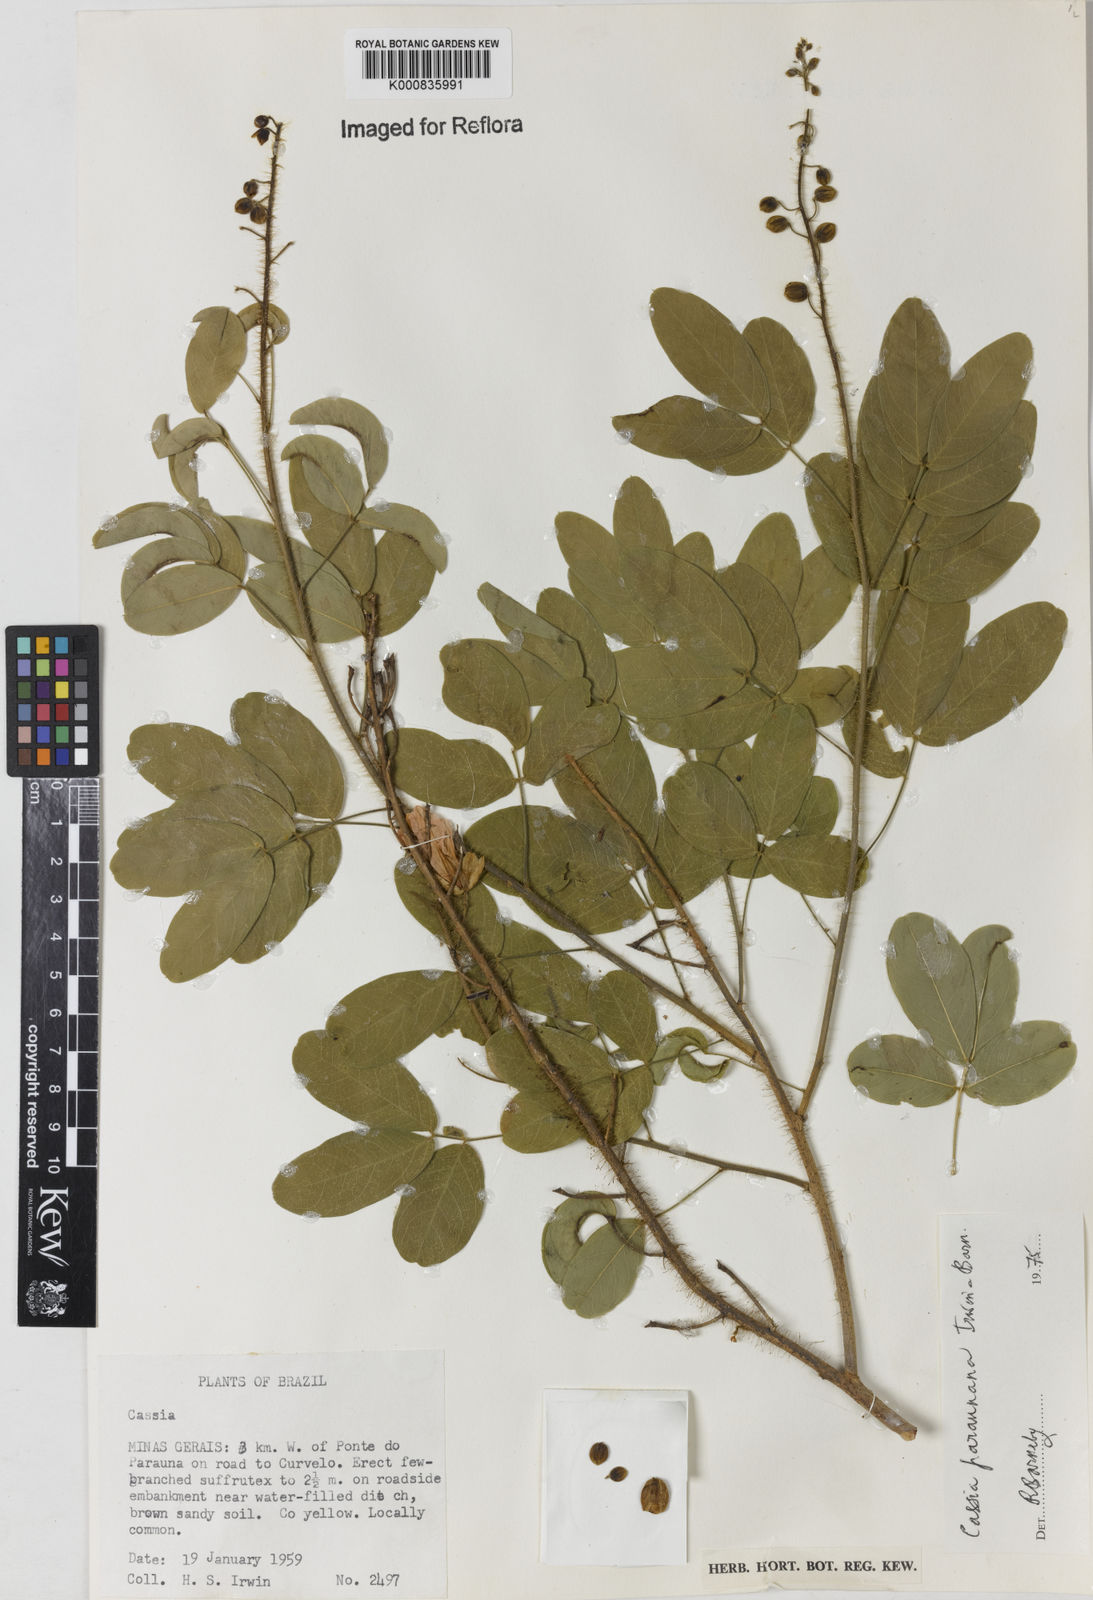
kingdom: Plantae
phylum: Tracheophyta
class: Magnoliopsida
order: Fabales
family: Fabaceae
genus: Chamaecrista
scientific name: Chamaecrista paraunana
